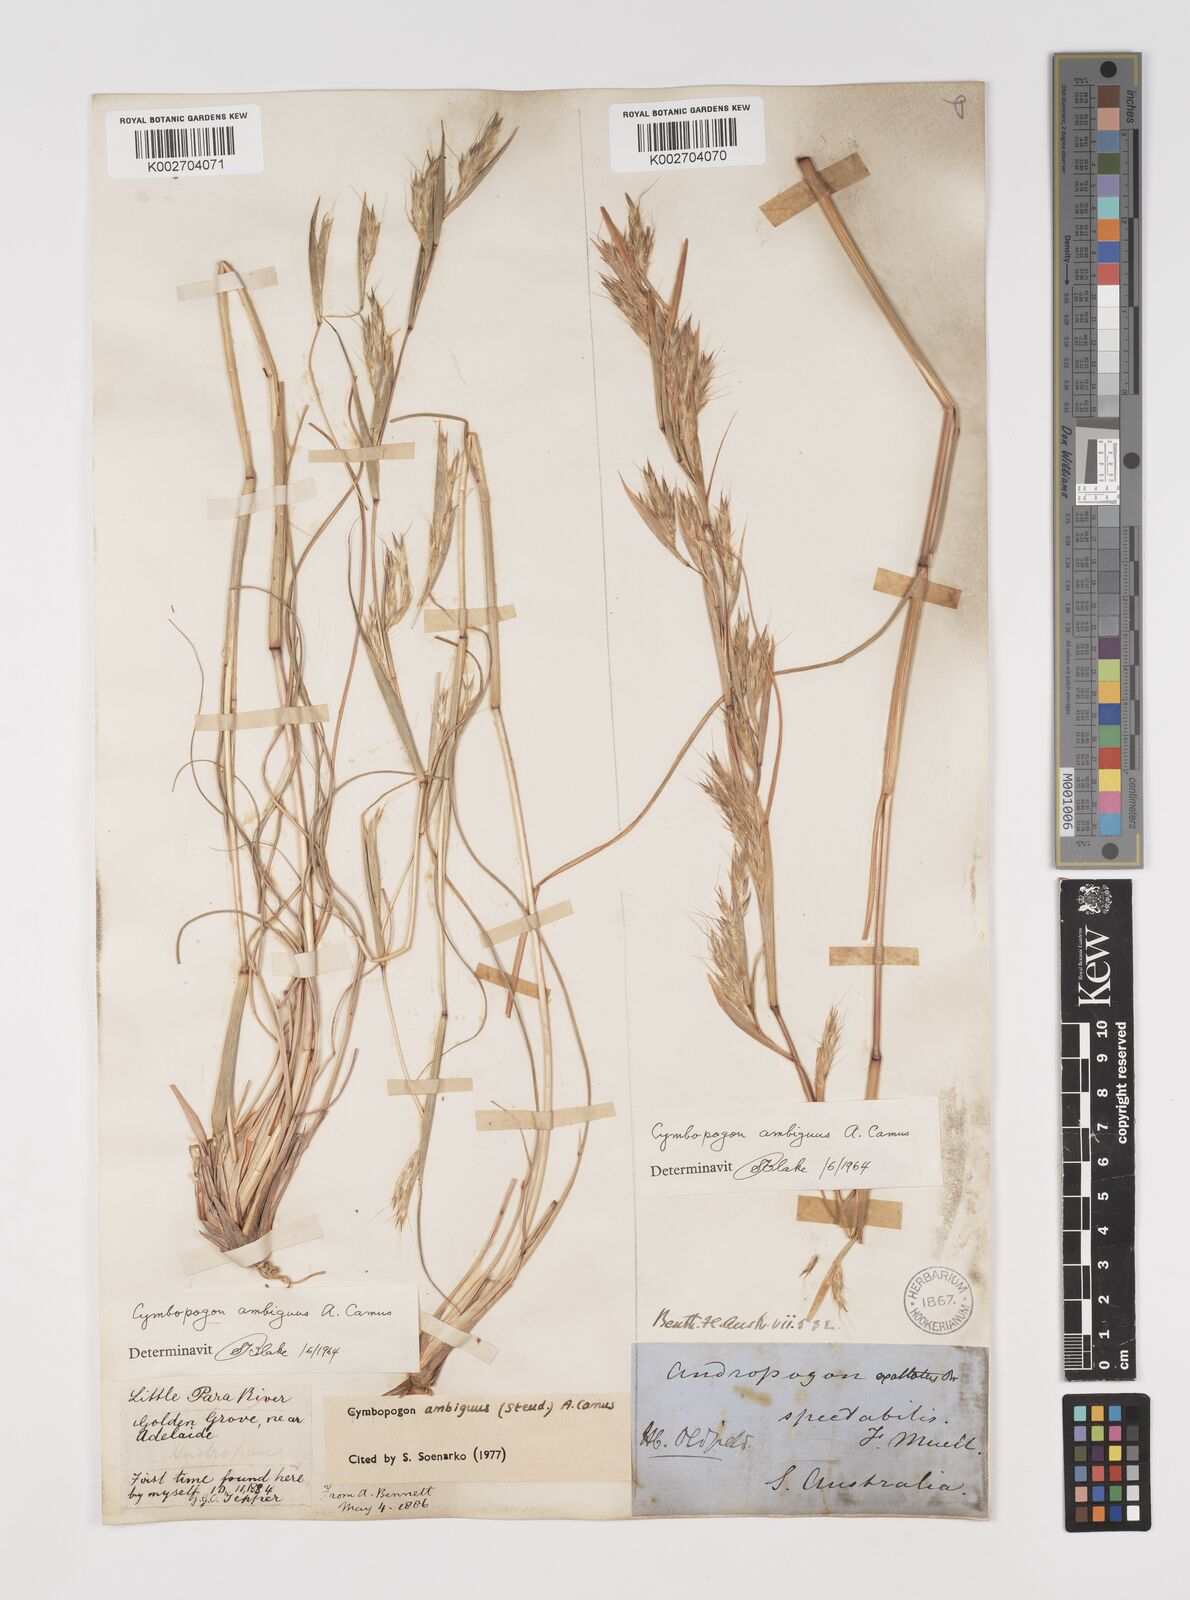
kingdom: Plantae
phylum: Tracheophyta
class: Liliopsida
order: Poales
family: Poaceae
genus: Cymbopogon
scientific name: Cymbopogon ambiguus
